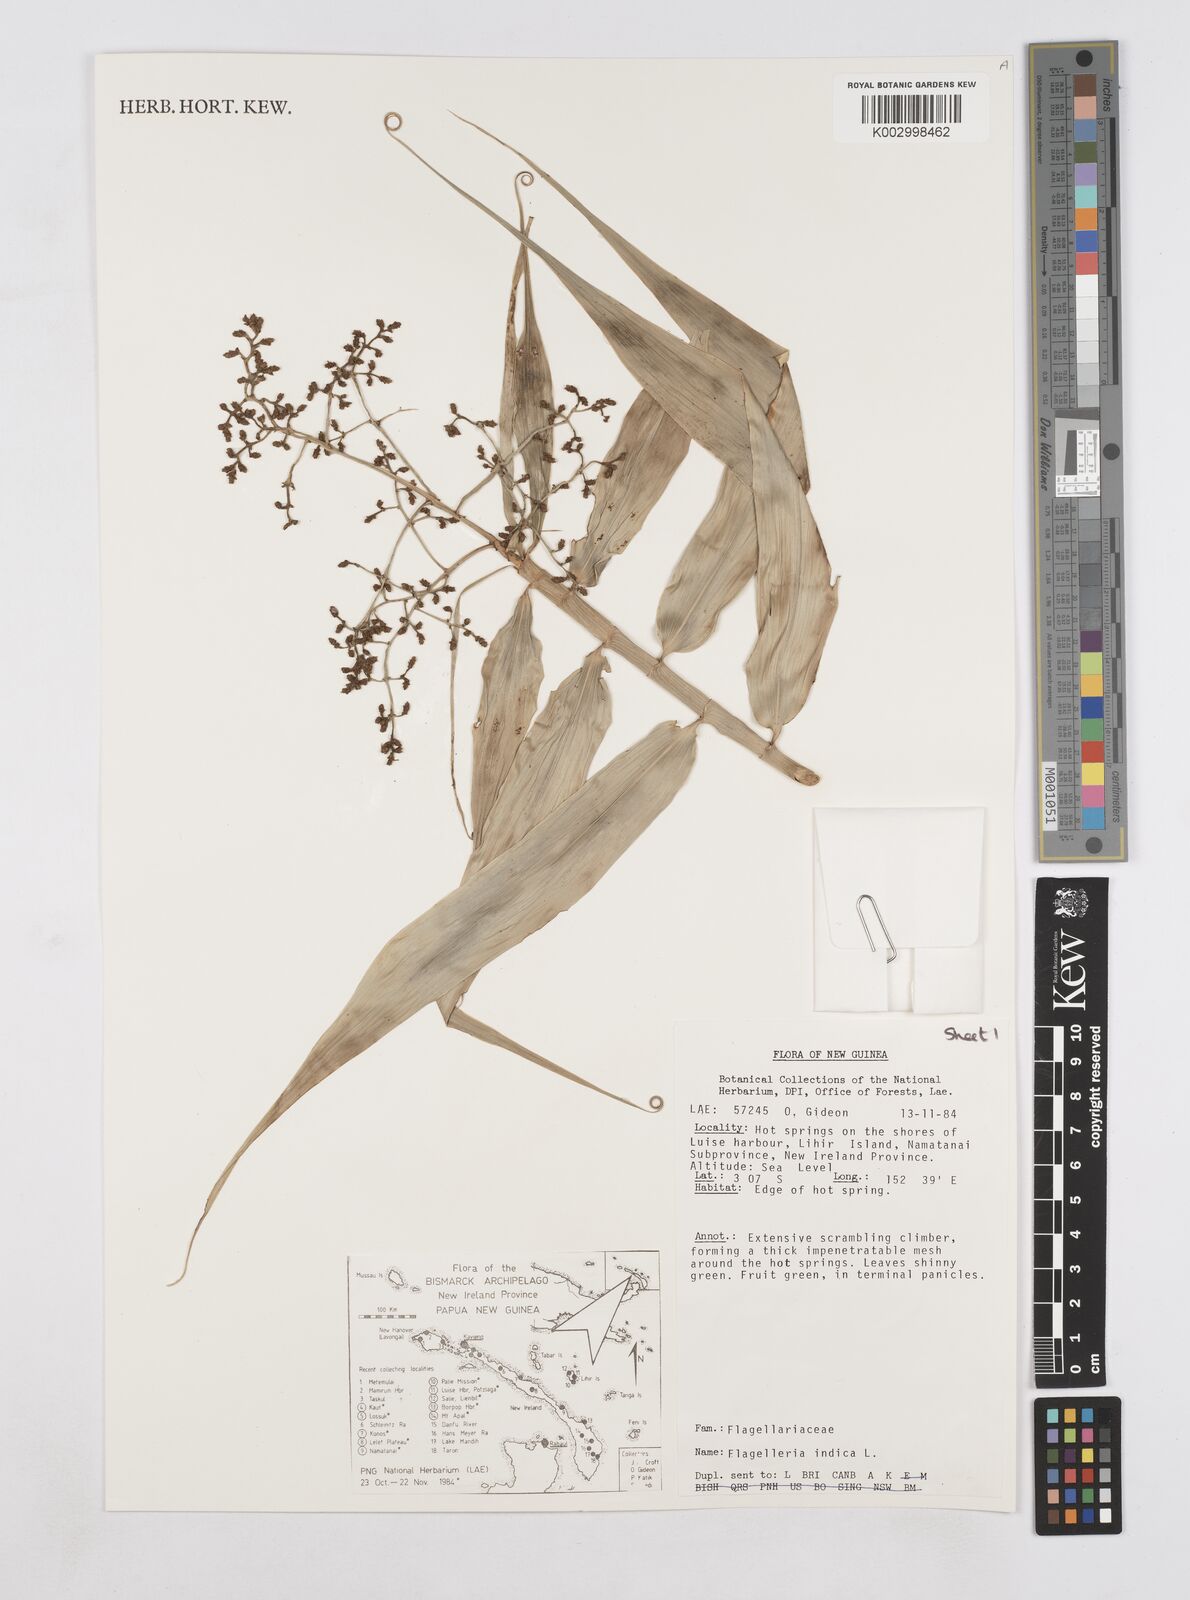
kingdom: Plantae
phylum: Tracheophyta
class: Liliopsida
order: Poales
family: Flagellariaceae
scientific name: Flagellariaceae
